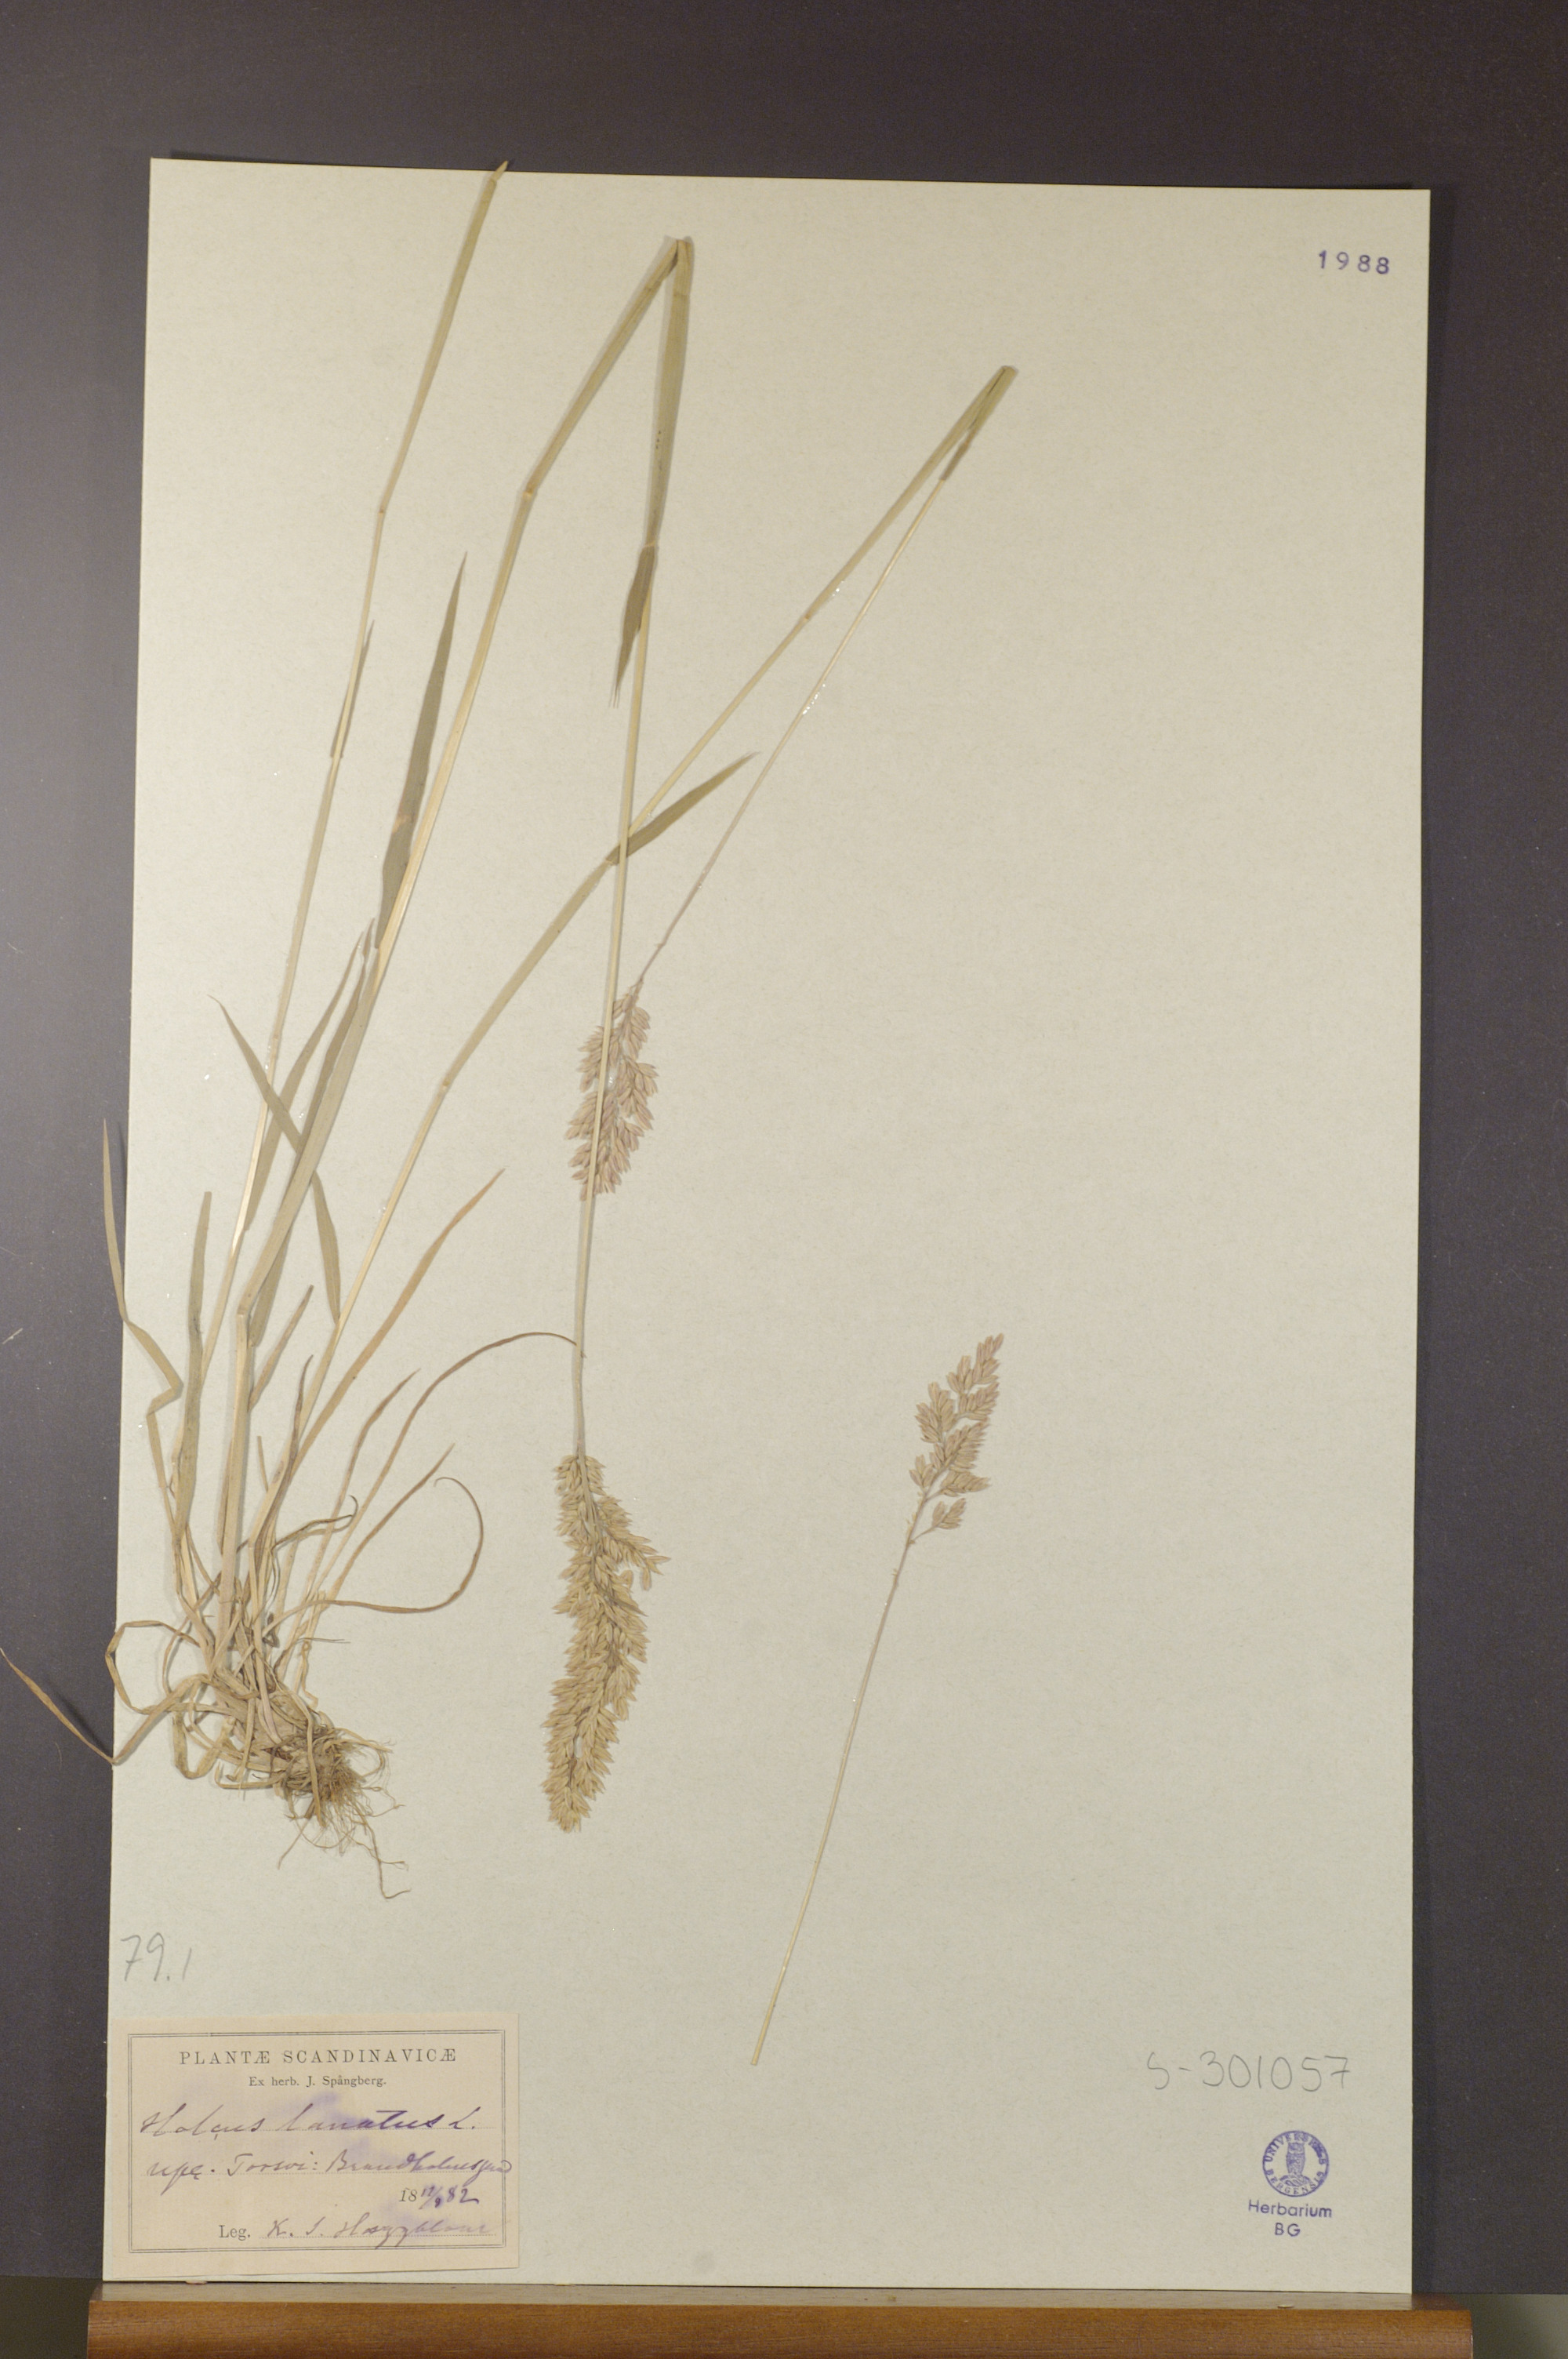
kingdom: Plantae
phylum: Tracheophyta
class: Liliopsida
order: Poales
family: Poaceae
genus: Holcus
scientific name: Holcus lanatus
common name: Yorkshire-fog
